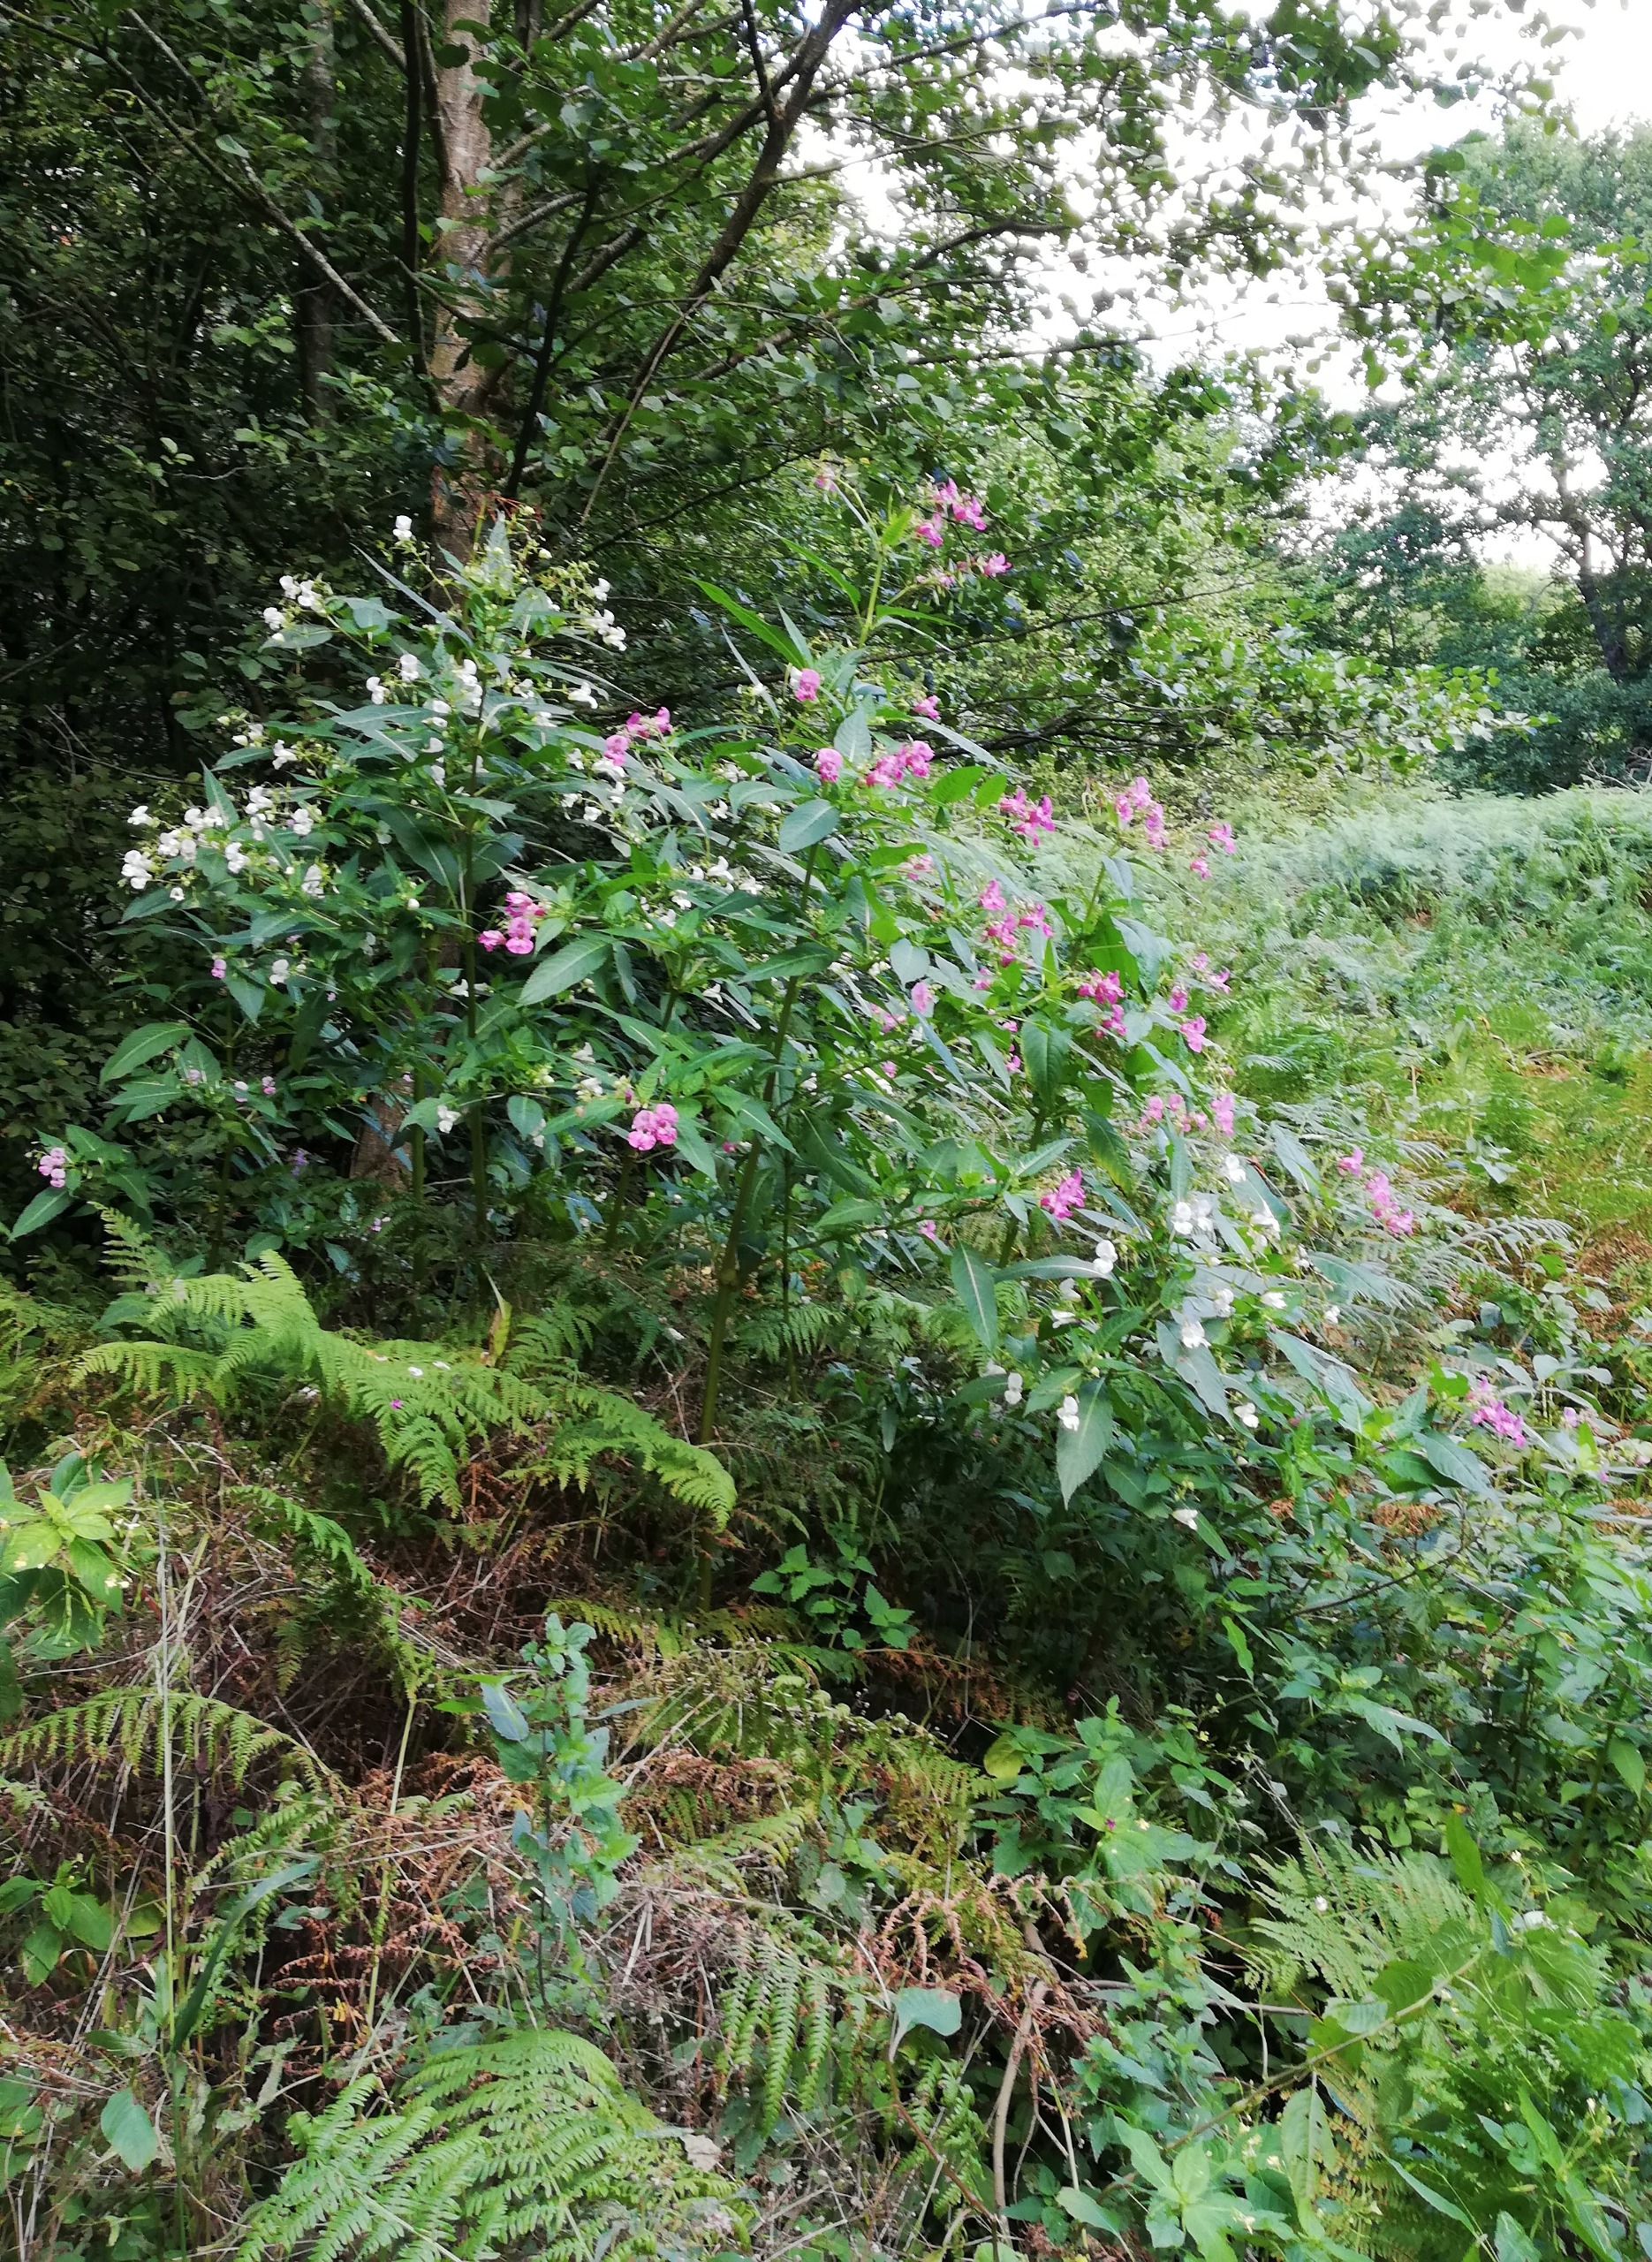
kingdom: Plantae
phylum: Tracheophyta
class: Magnoliopsida
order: Ericales
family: Balsaminaceae
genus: Impatiens
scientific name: Impatiens glandulifera
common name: Kæmpe-balsamin
